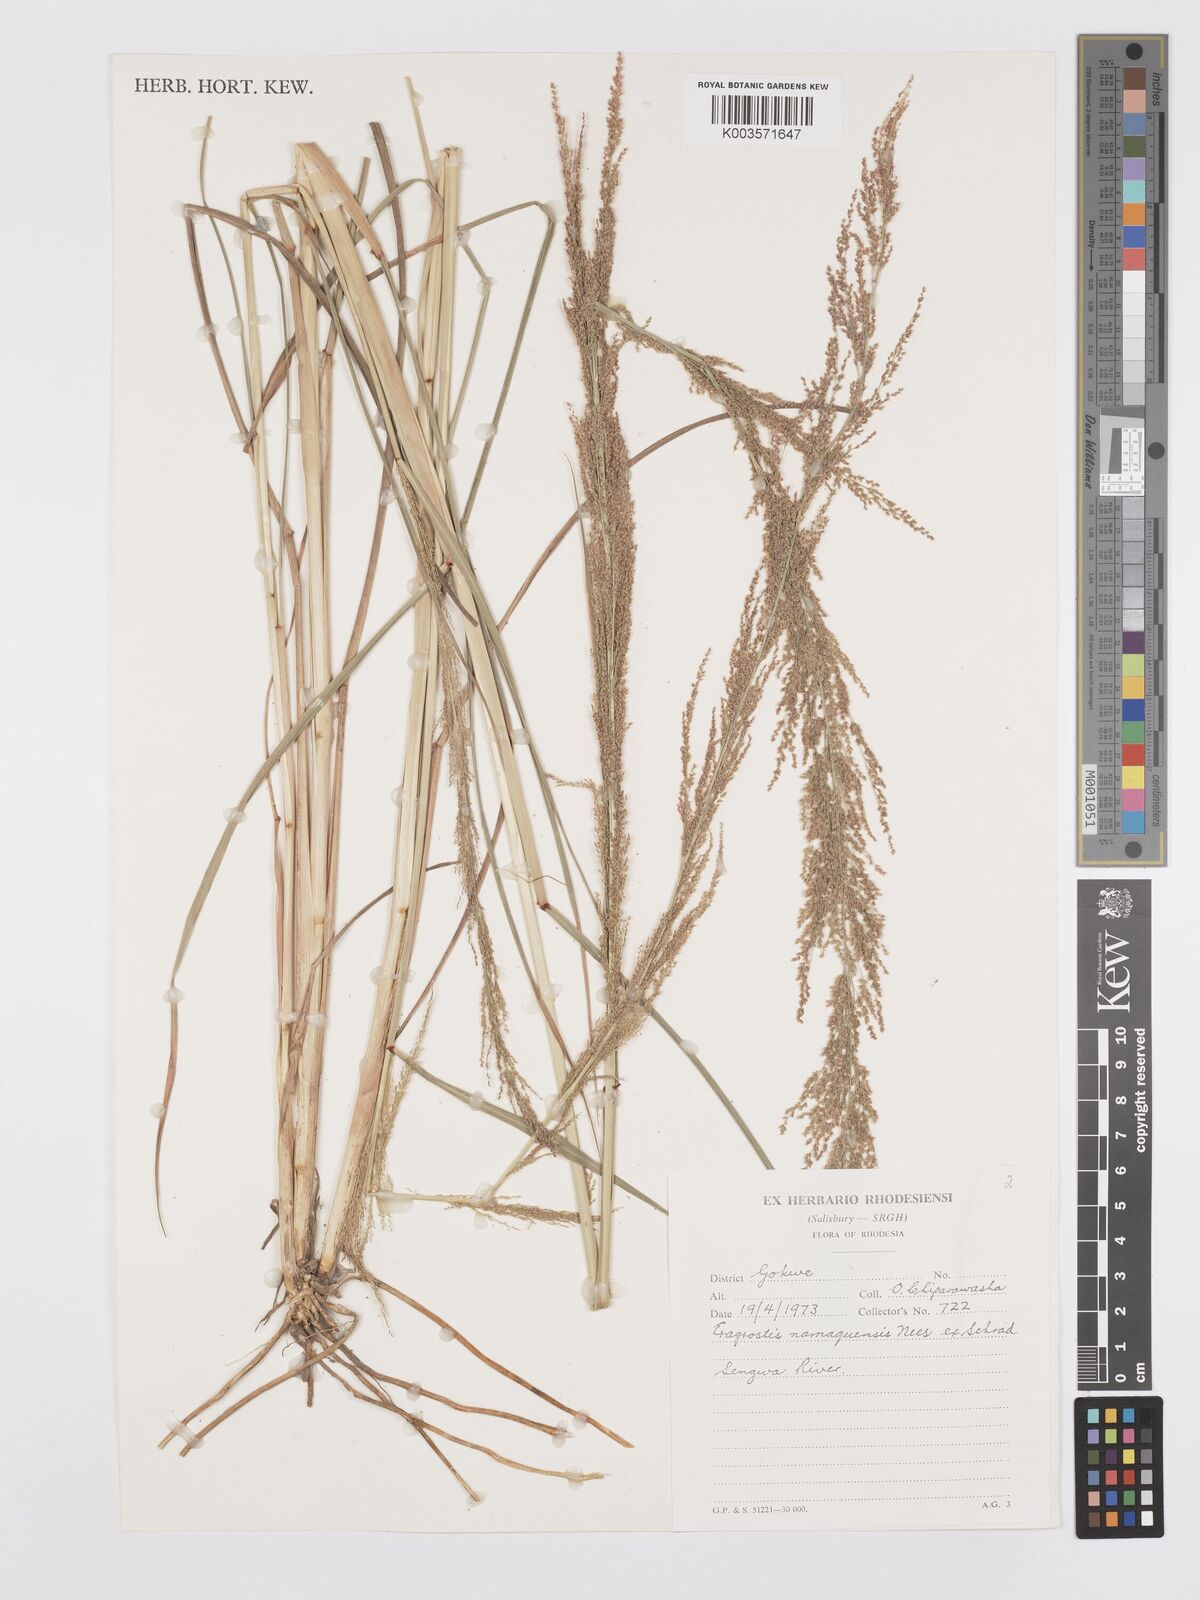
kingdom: Plantae
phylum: Tracheophyta
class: Liliopsida
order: Poales
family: Poaceae
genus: Eragrostis
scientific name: Eragrostis japonica
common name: Pond lovegrass
